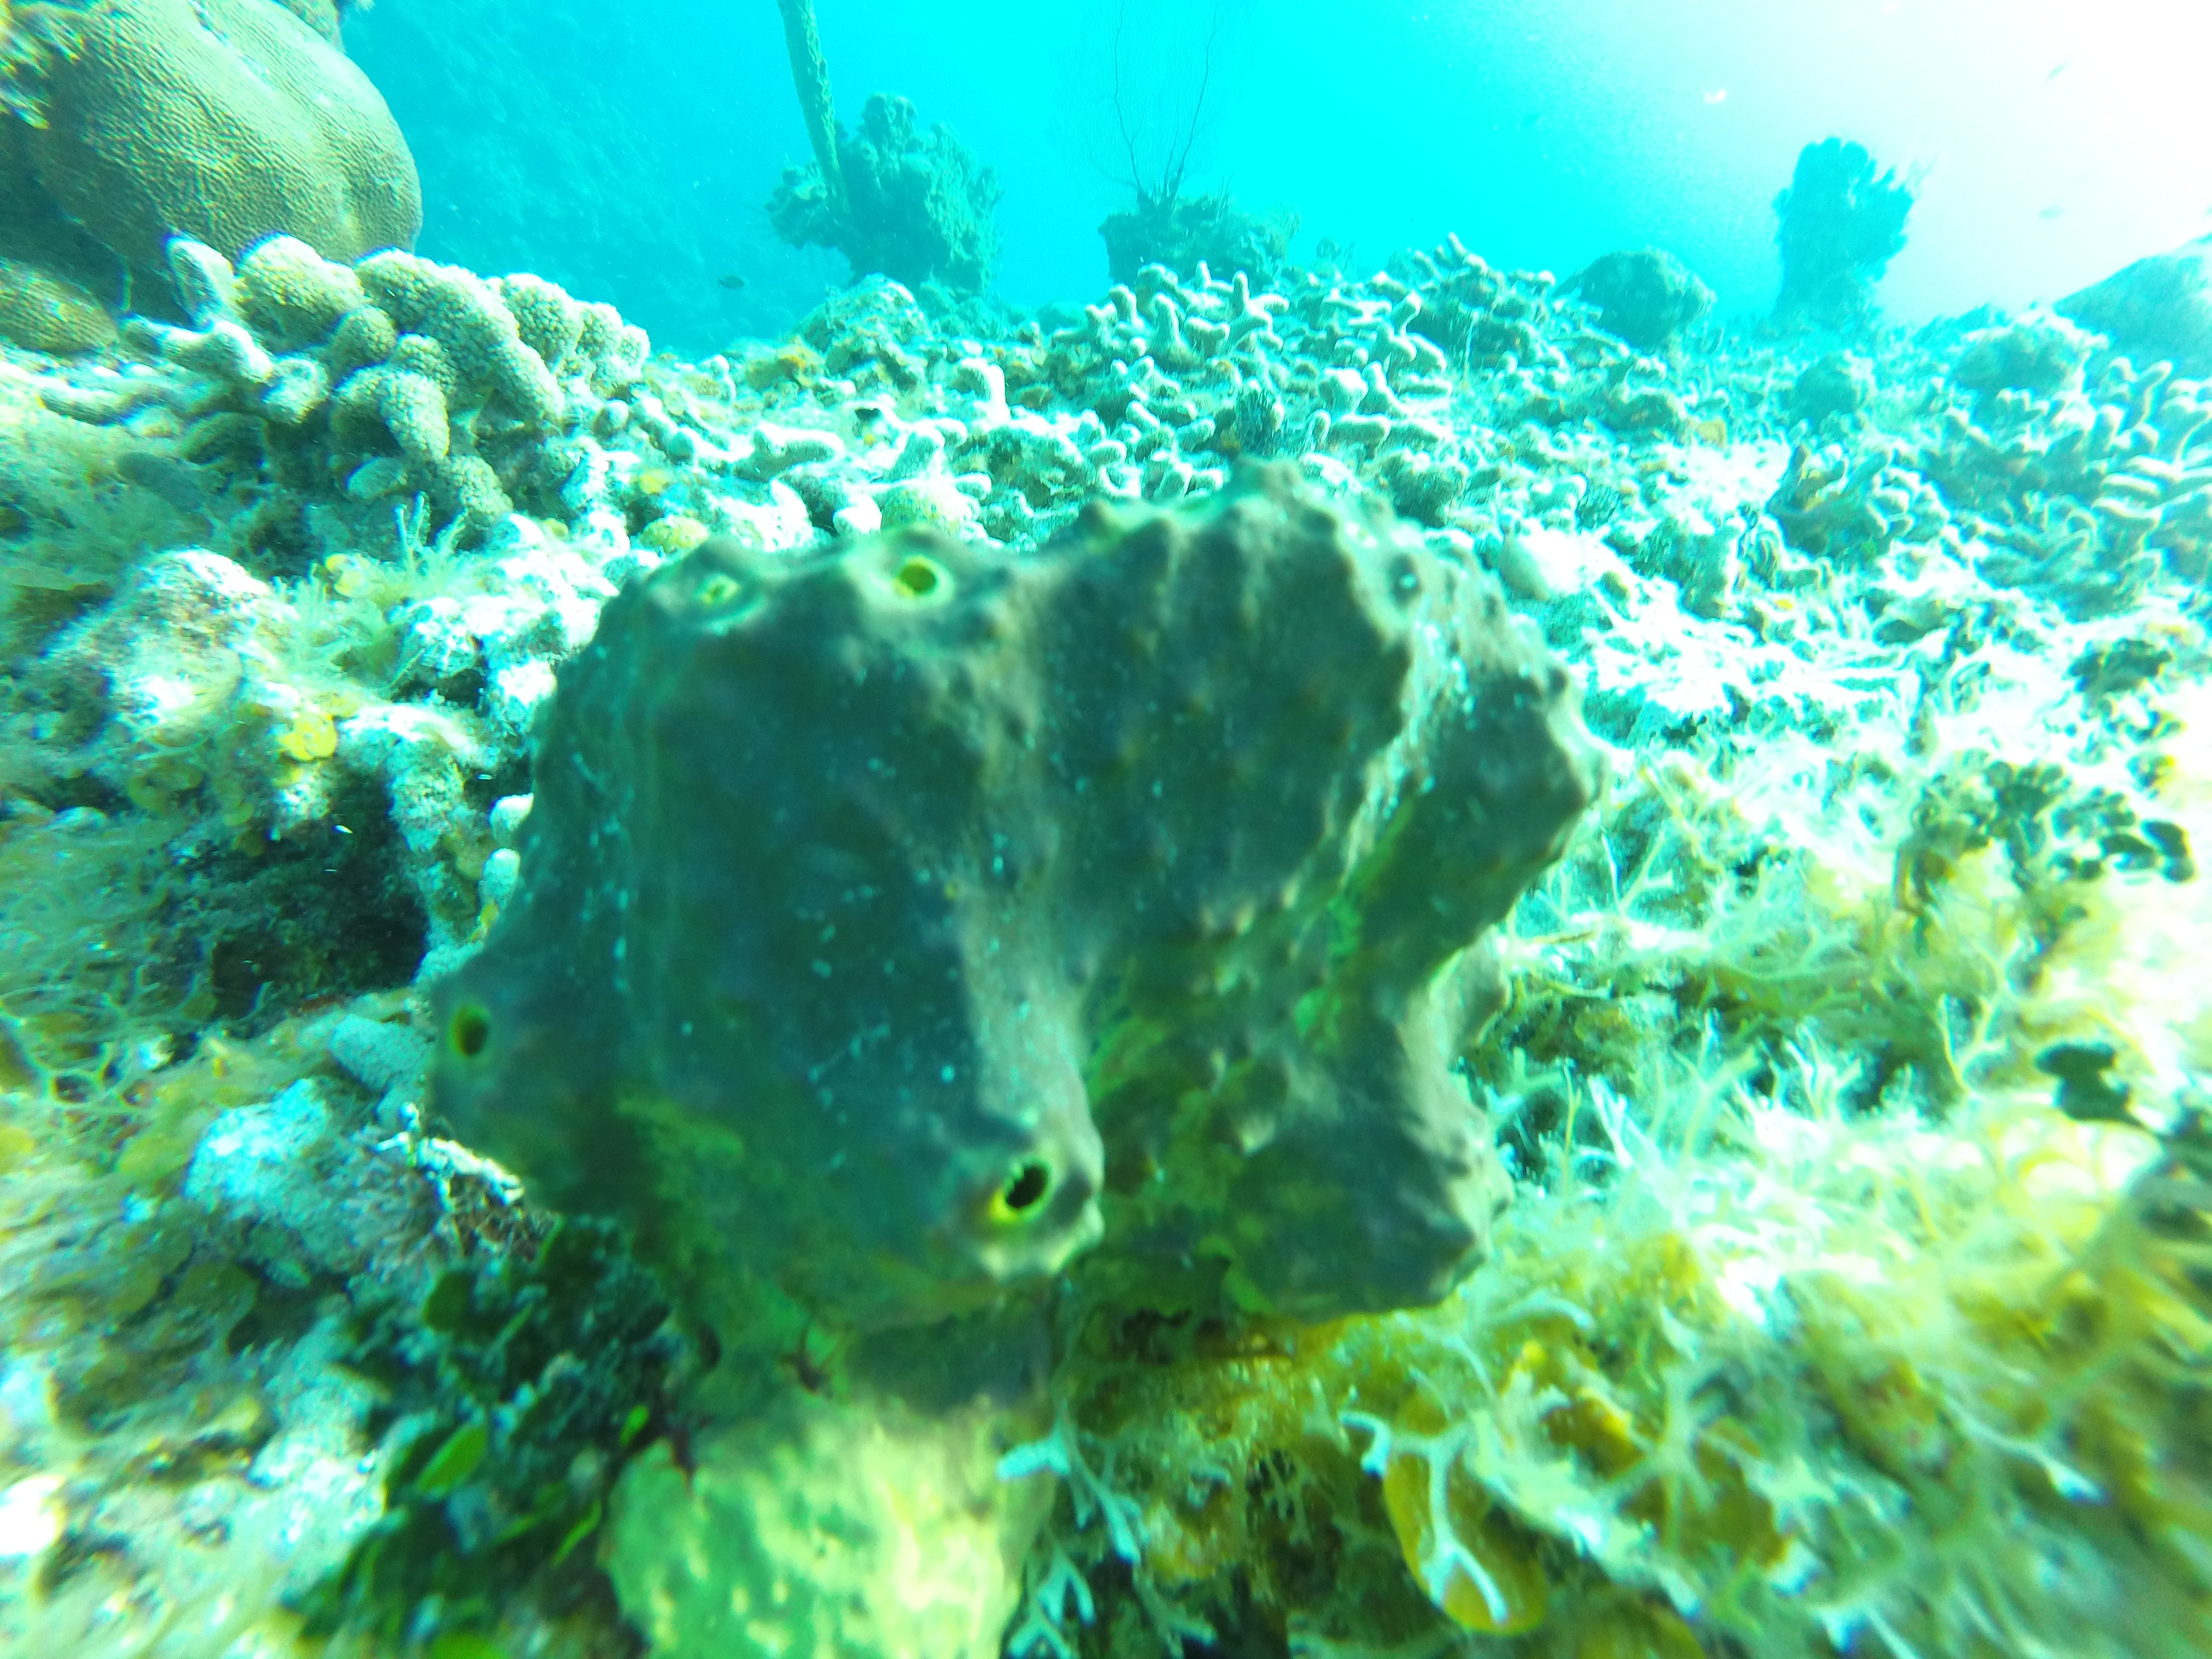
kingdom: Animalia
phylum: Porifera
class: Demospongiae
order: Verongiida
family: Aplysinidae
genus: Aiolochroia
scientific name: Aiolochroia
